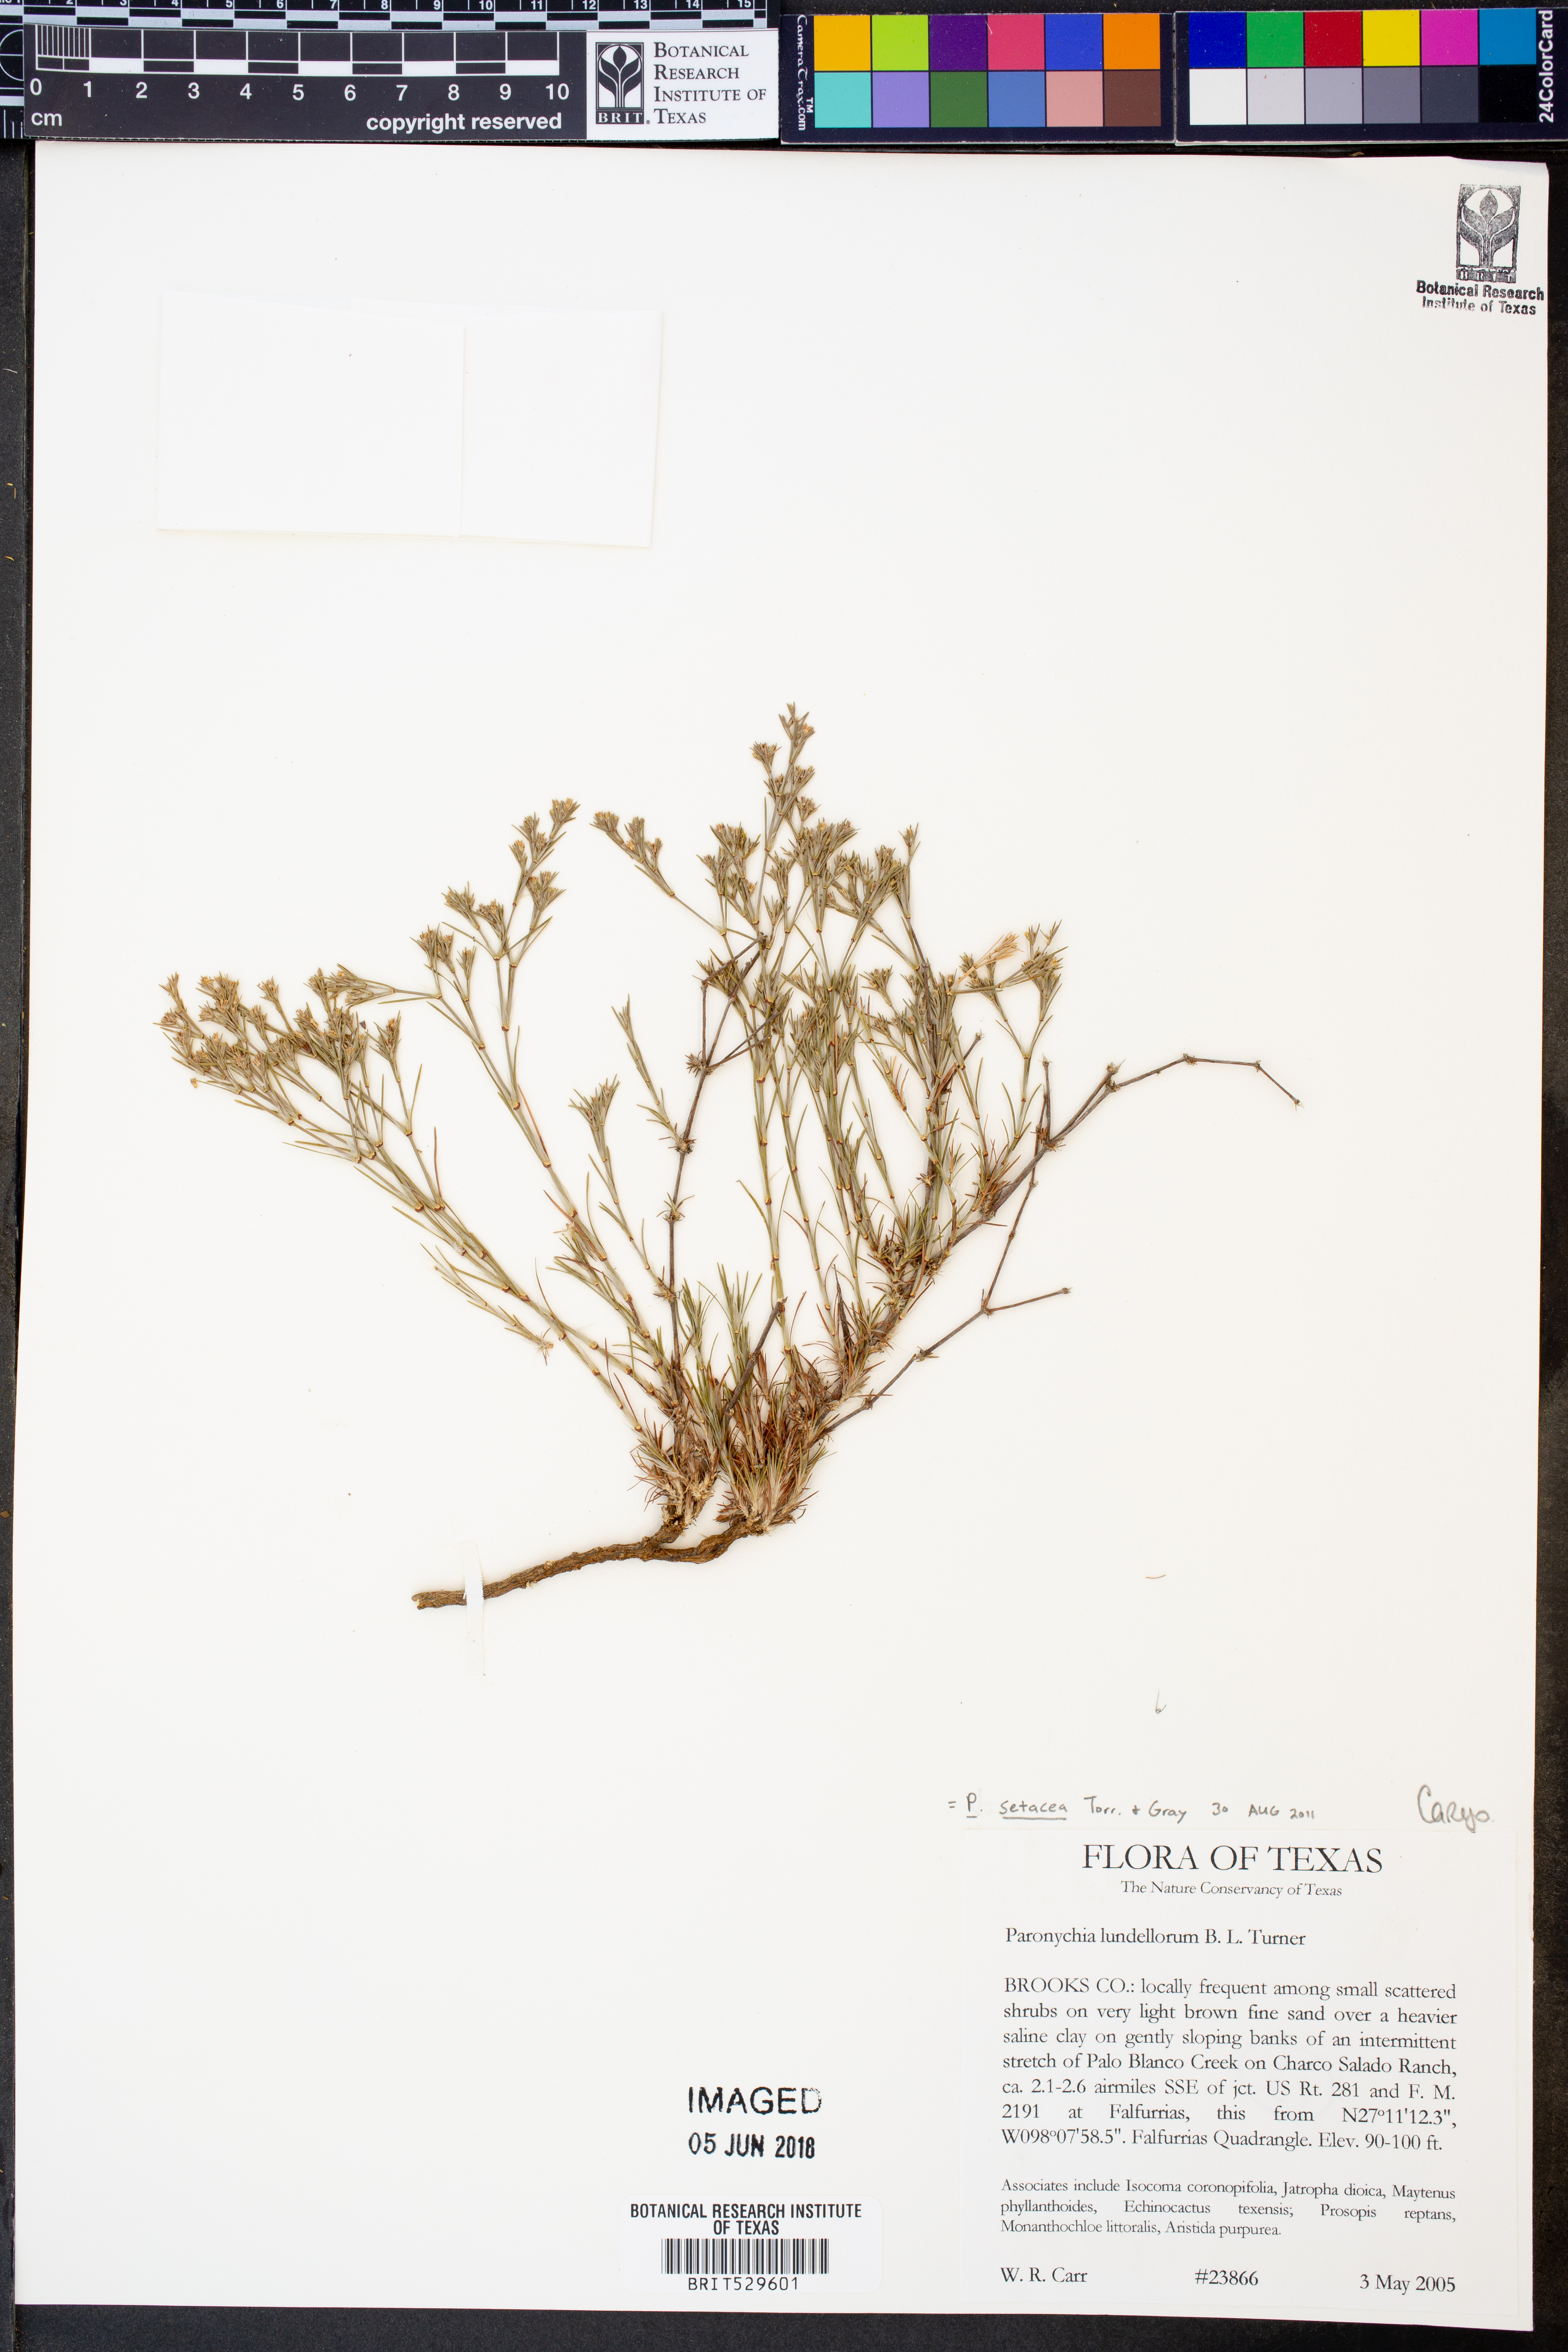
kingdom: Plantae
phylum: Tracheophyta
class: Magnoliopsida
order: Caryophyllales
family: Caryophyllaceae
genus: Paronychia
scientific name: Paronychia setacea
